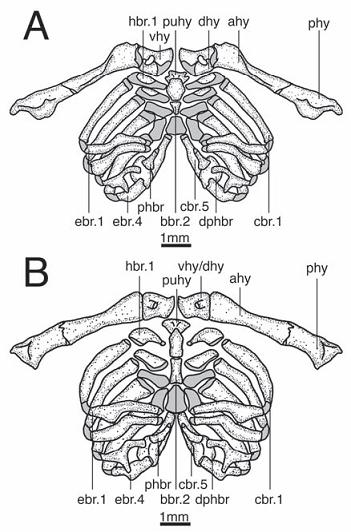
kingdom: Animalia
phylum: Chordata
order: Siluriformes
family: Mochokidae
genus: Euchilichthys
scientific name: Euchilichthys royauxi
